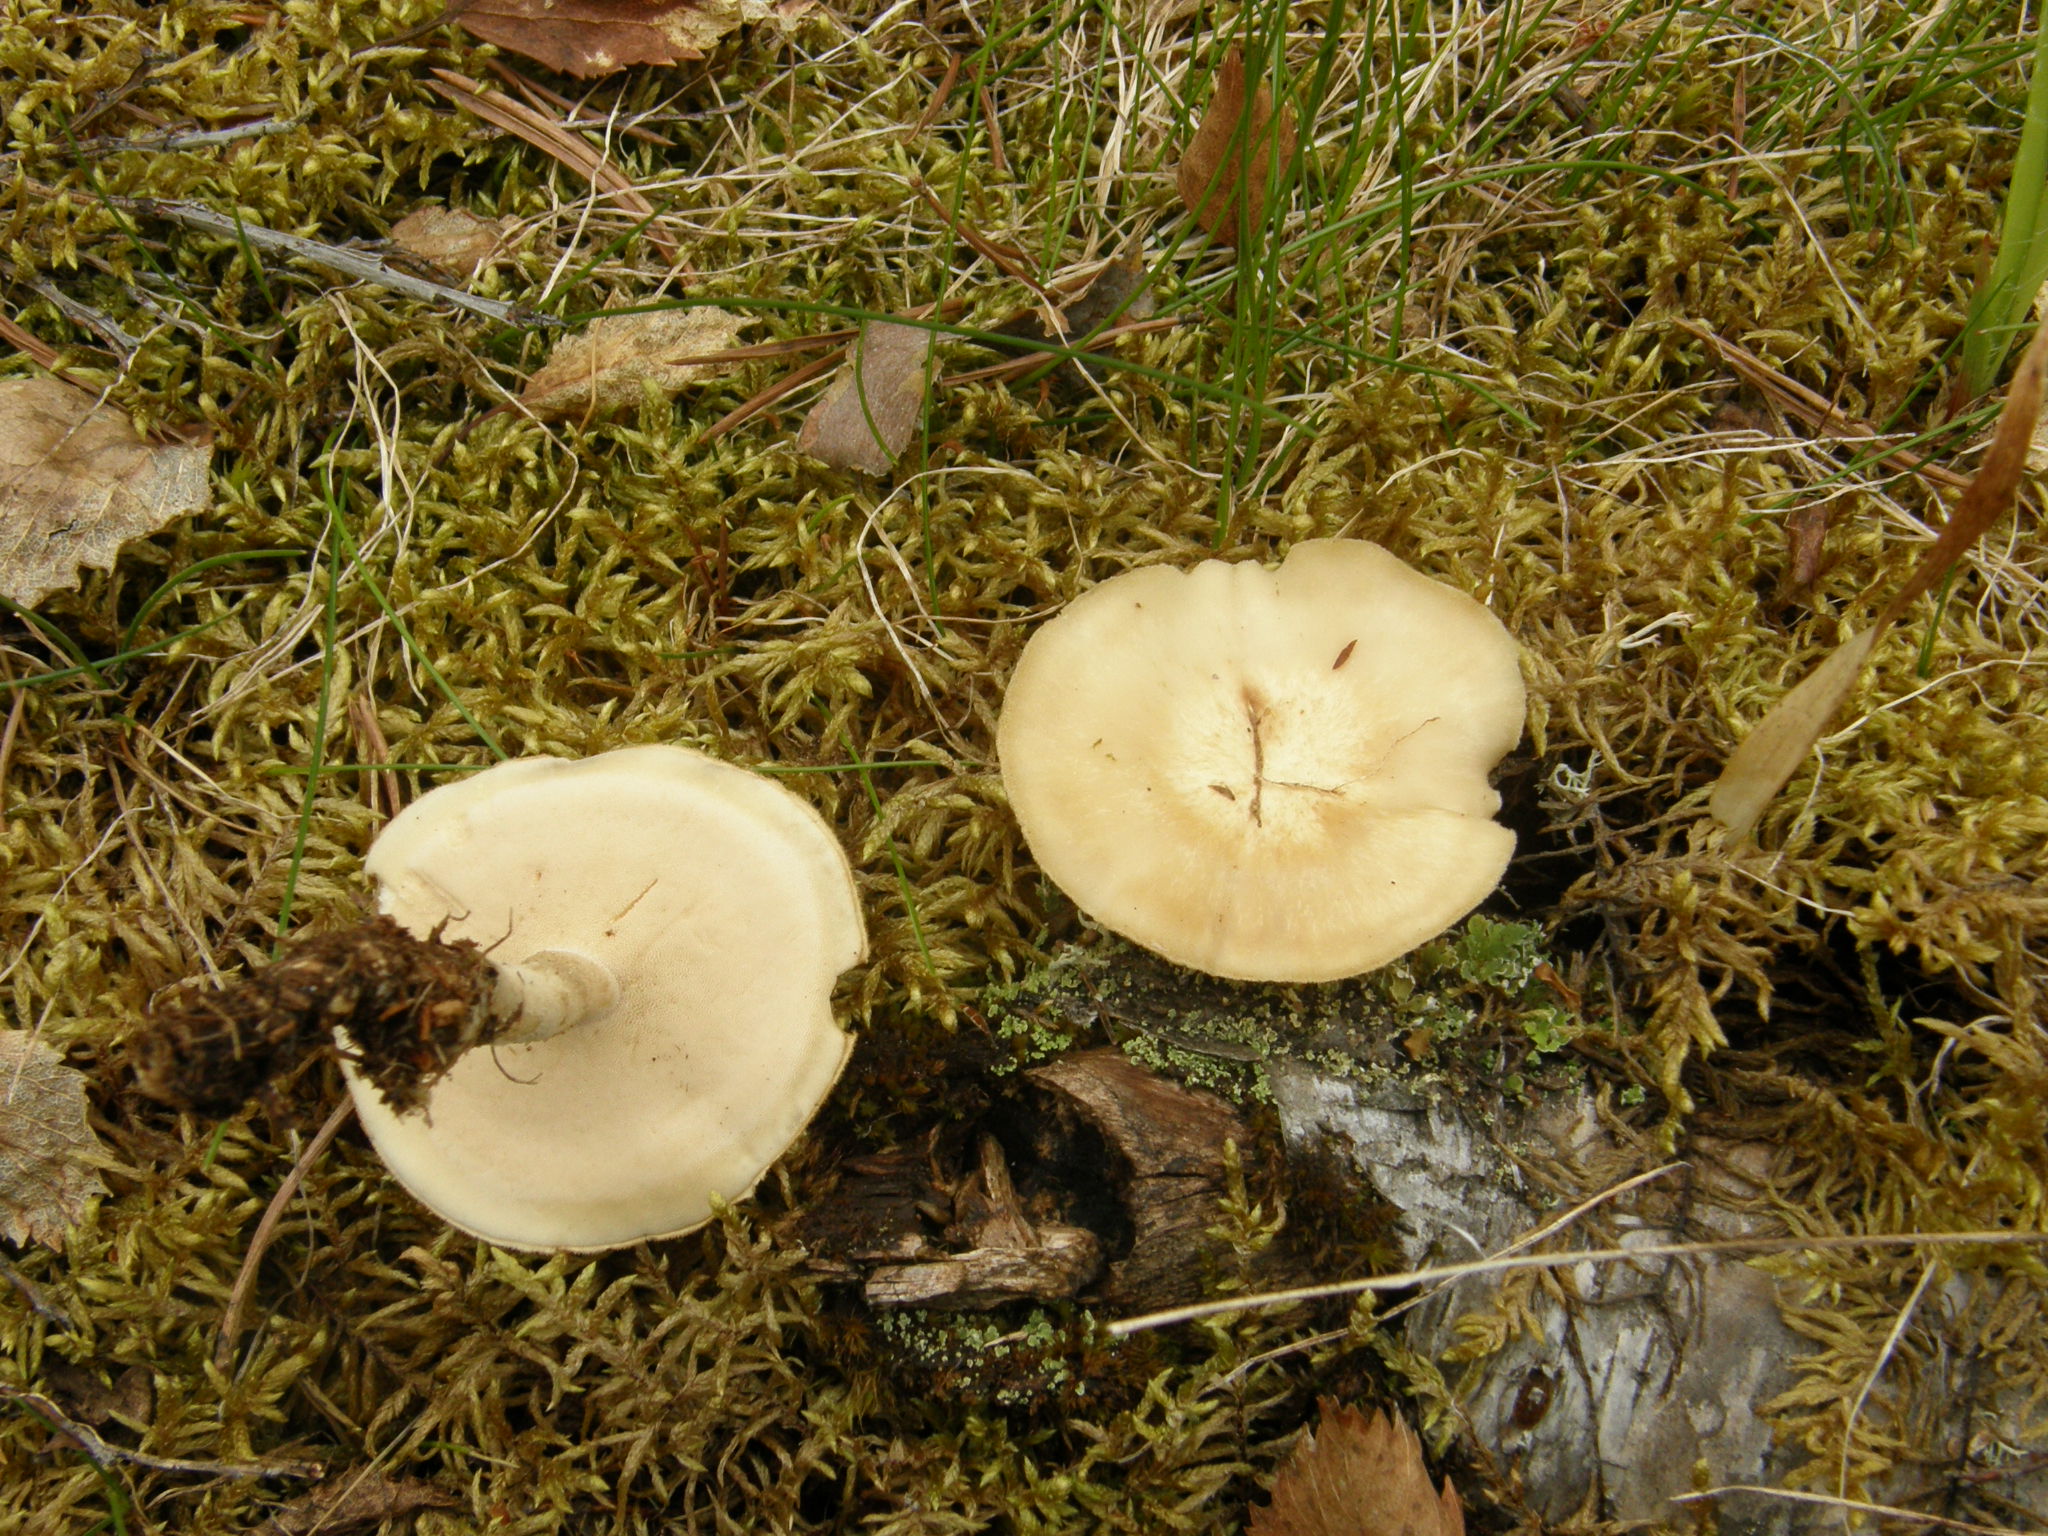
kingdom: Fungi
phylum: Basidiomycota
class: Agaricomycetes
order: Polyporales
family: Polyporaceae
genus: Lentinus
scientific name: Lentinus substrictus
